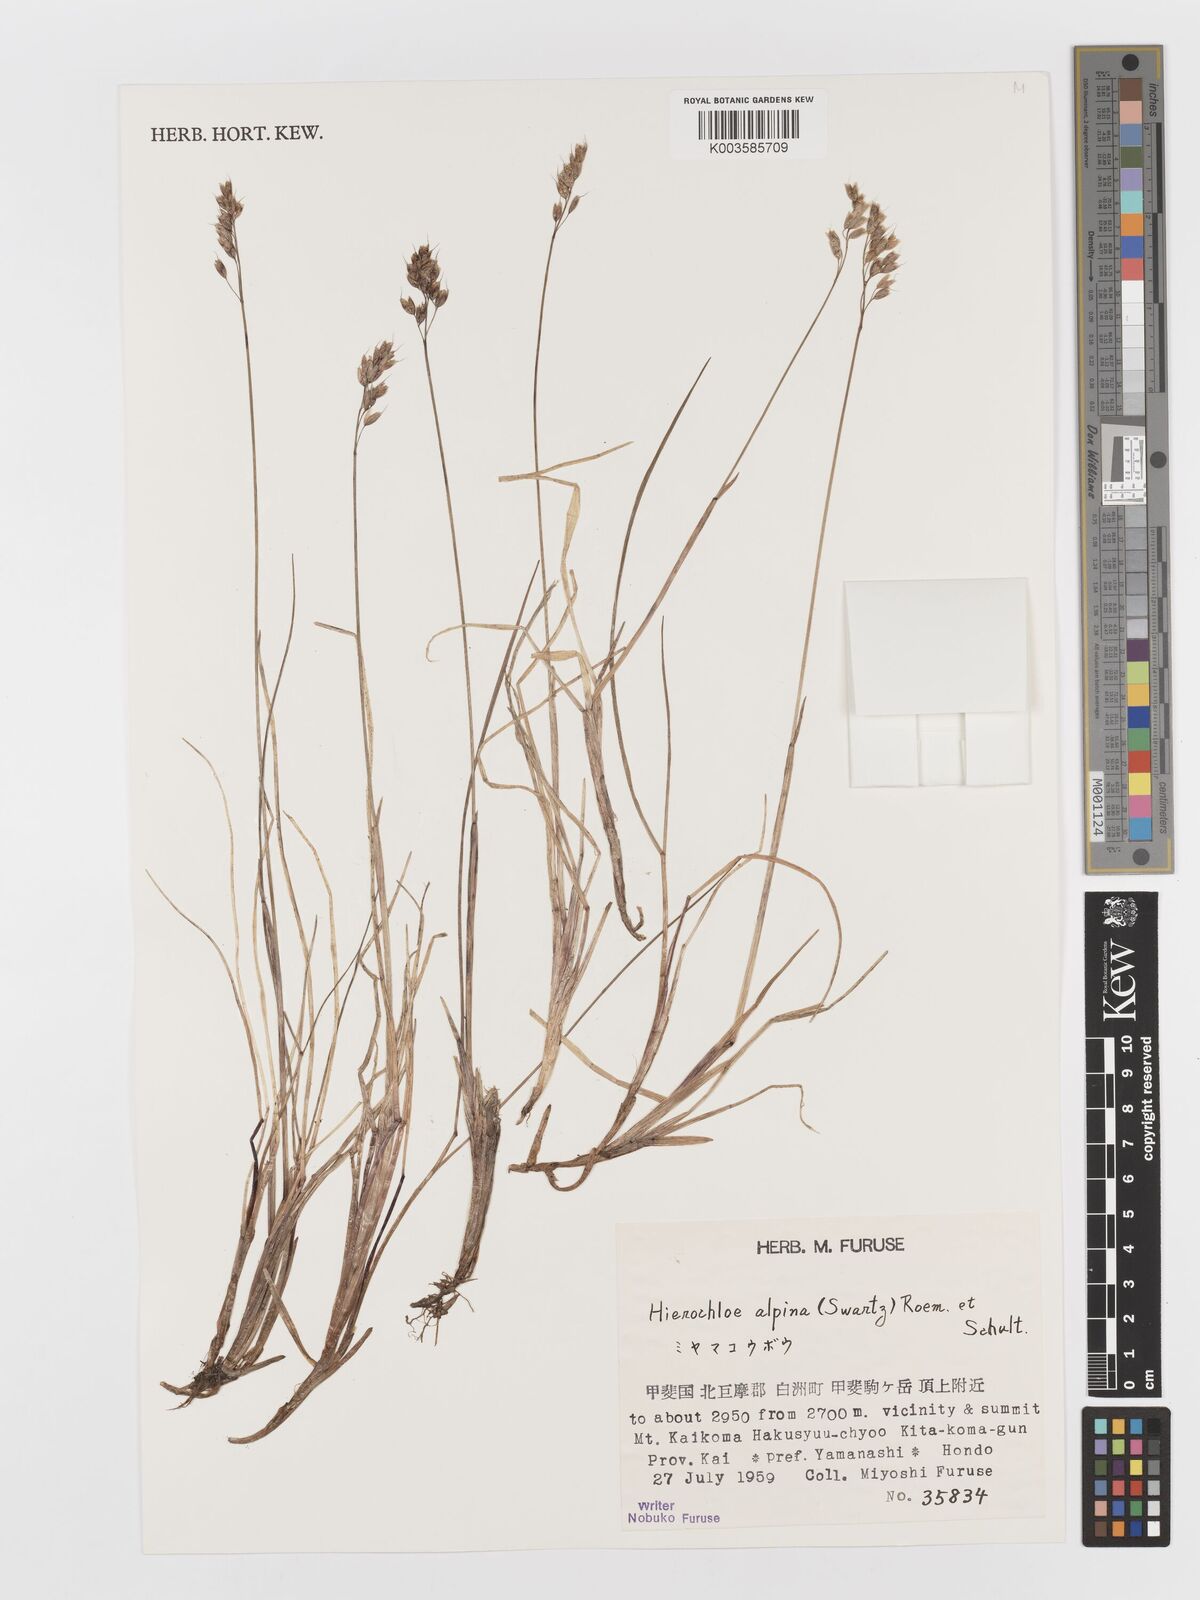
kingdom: Plantae
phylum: Tracheophyta
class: Liliopsida
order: Poales
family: Poaceae
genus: Anthoxanthum
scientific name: Anthoxanthum monticola
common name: Alpine sweetgrass
